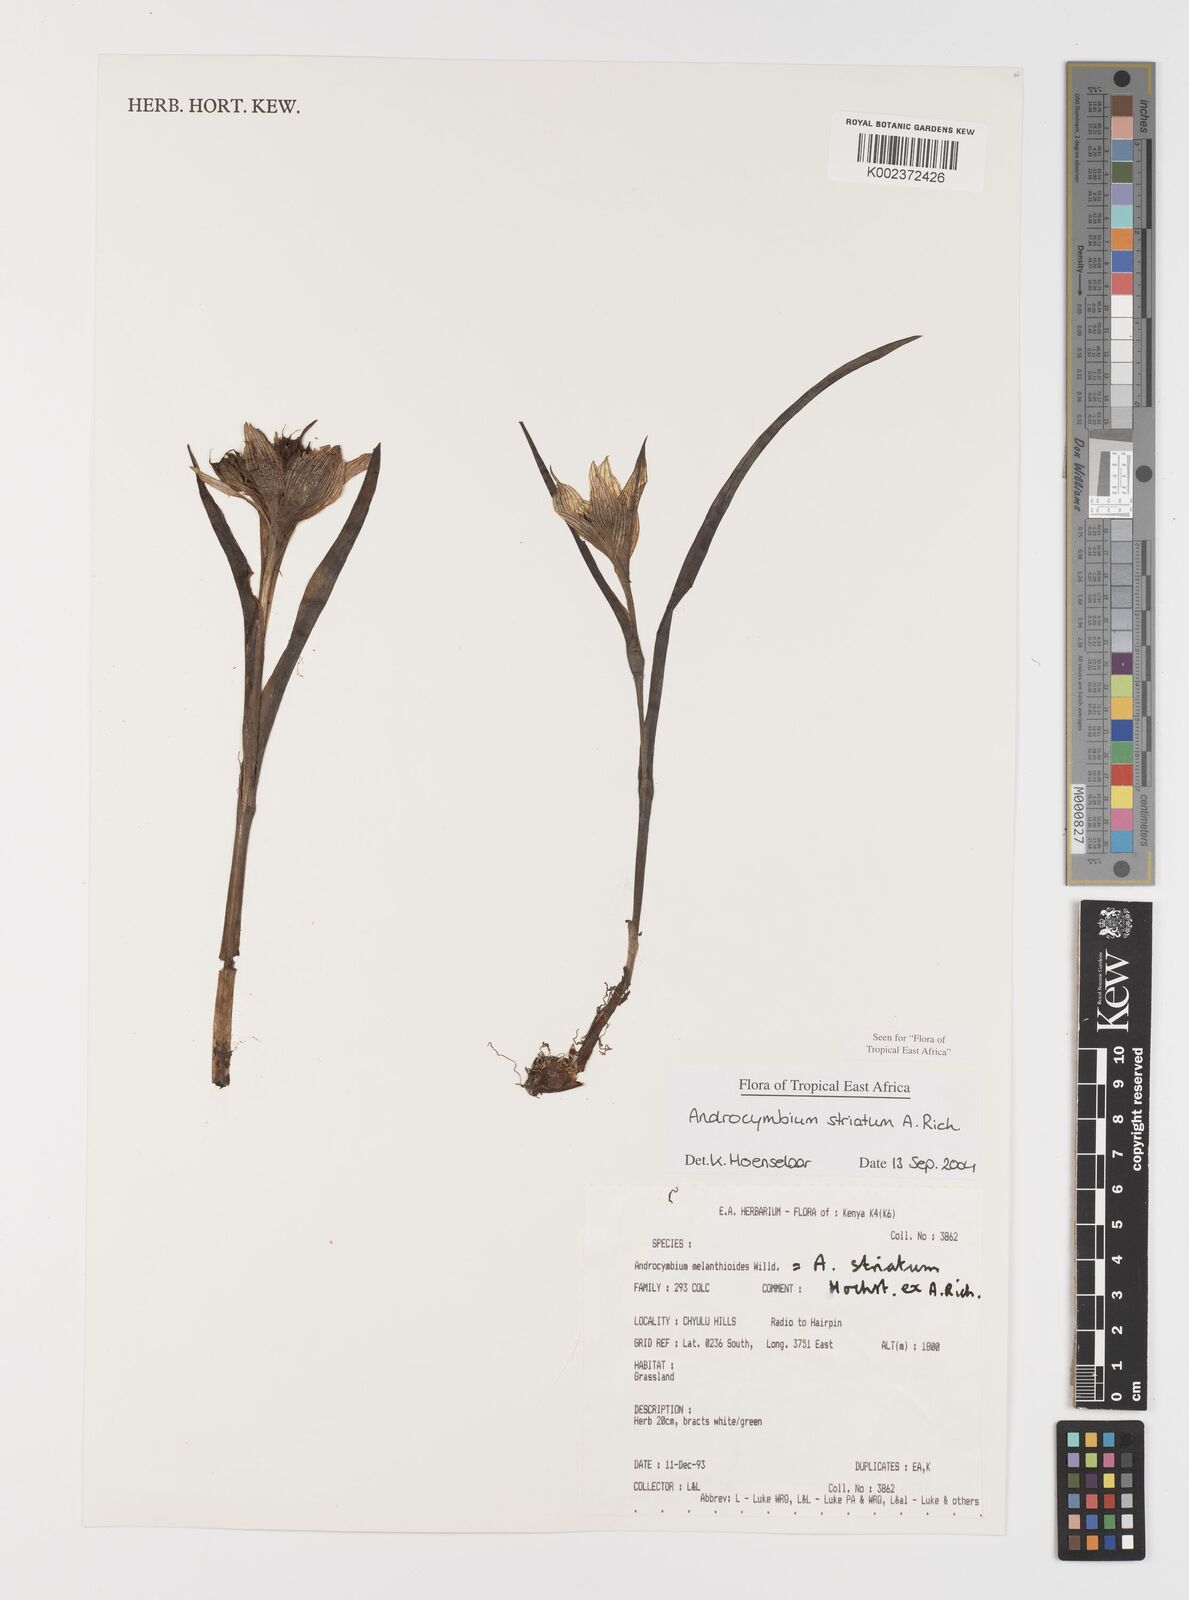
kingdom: Plantae
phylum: Tracheophyta
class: Liliopsida
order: Liliales
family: Colchicaceae
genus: Colchicum
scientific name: Colchicum striatum
